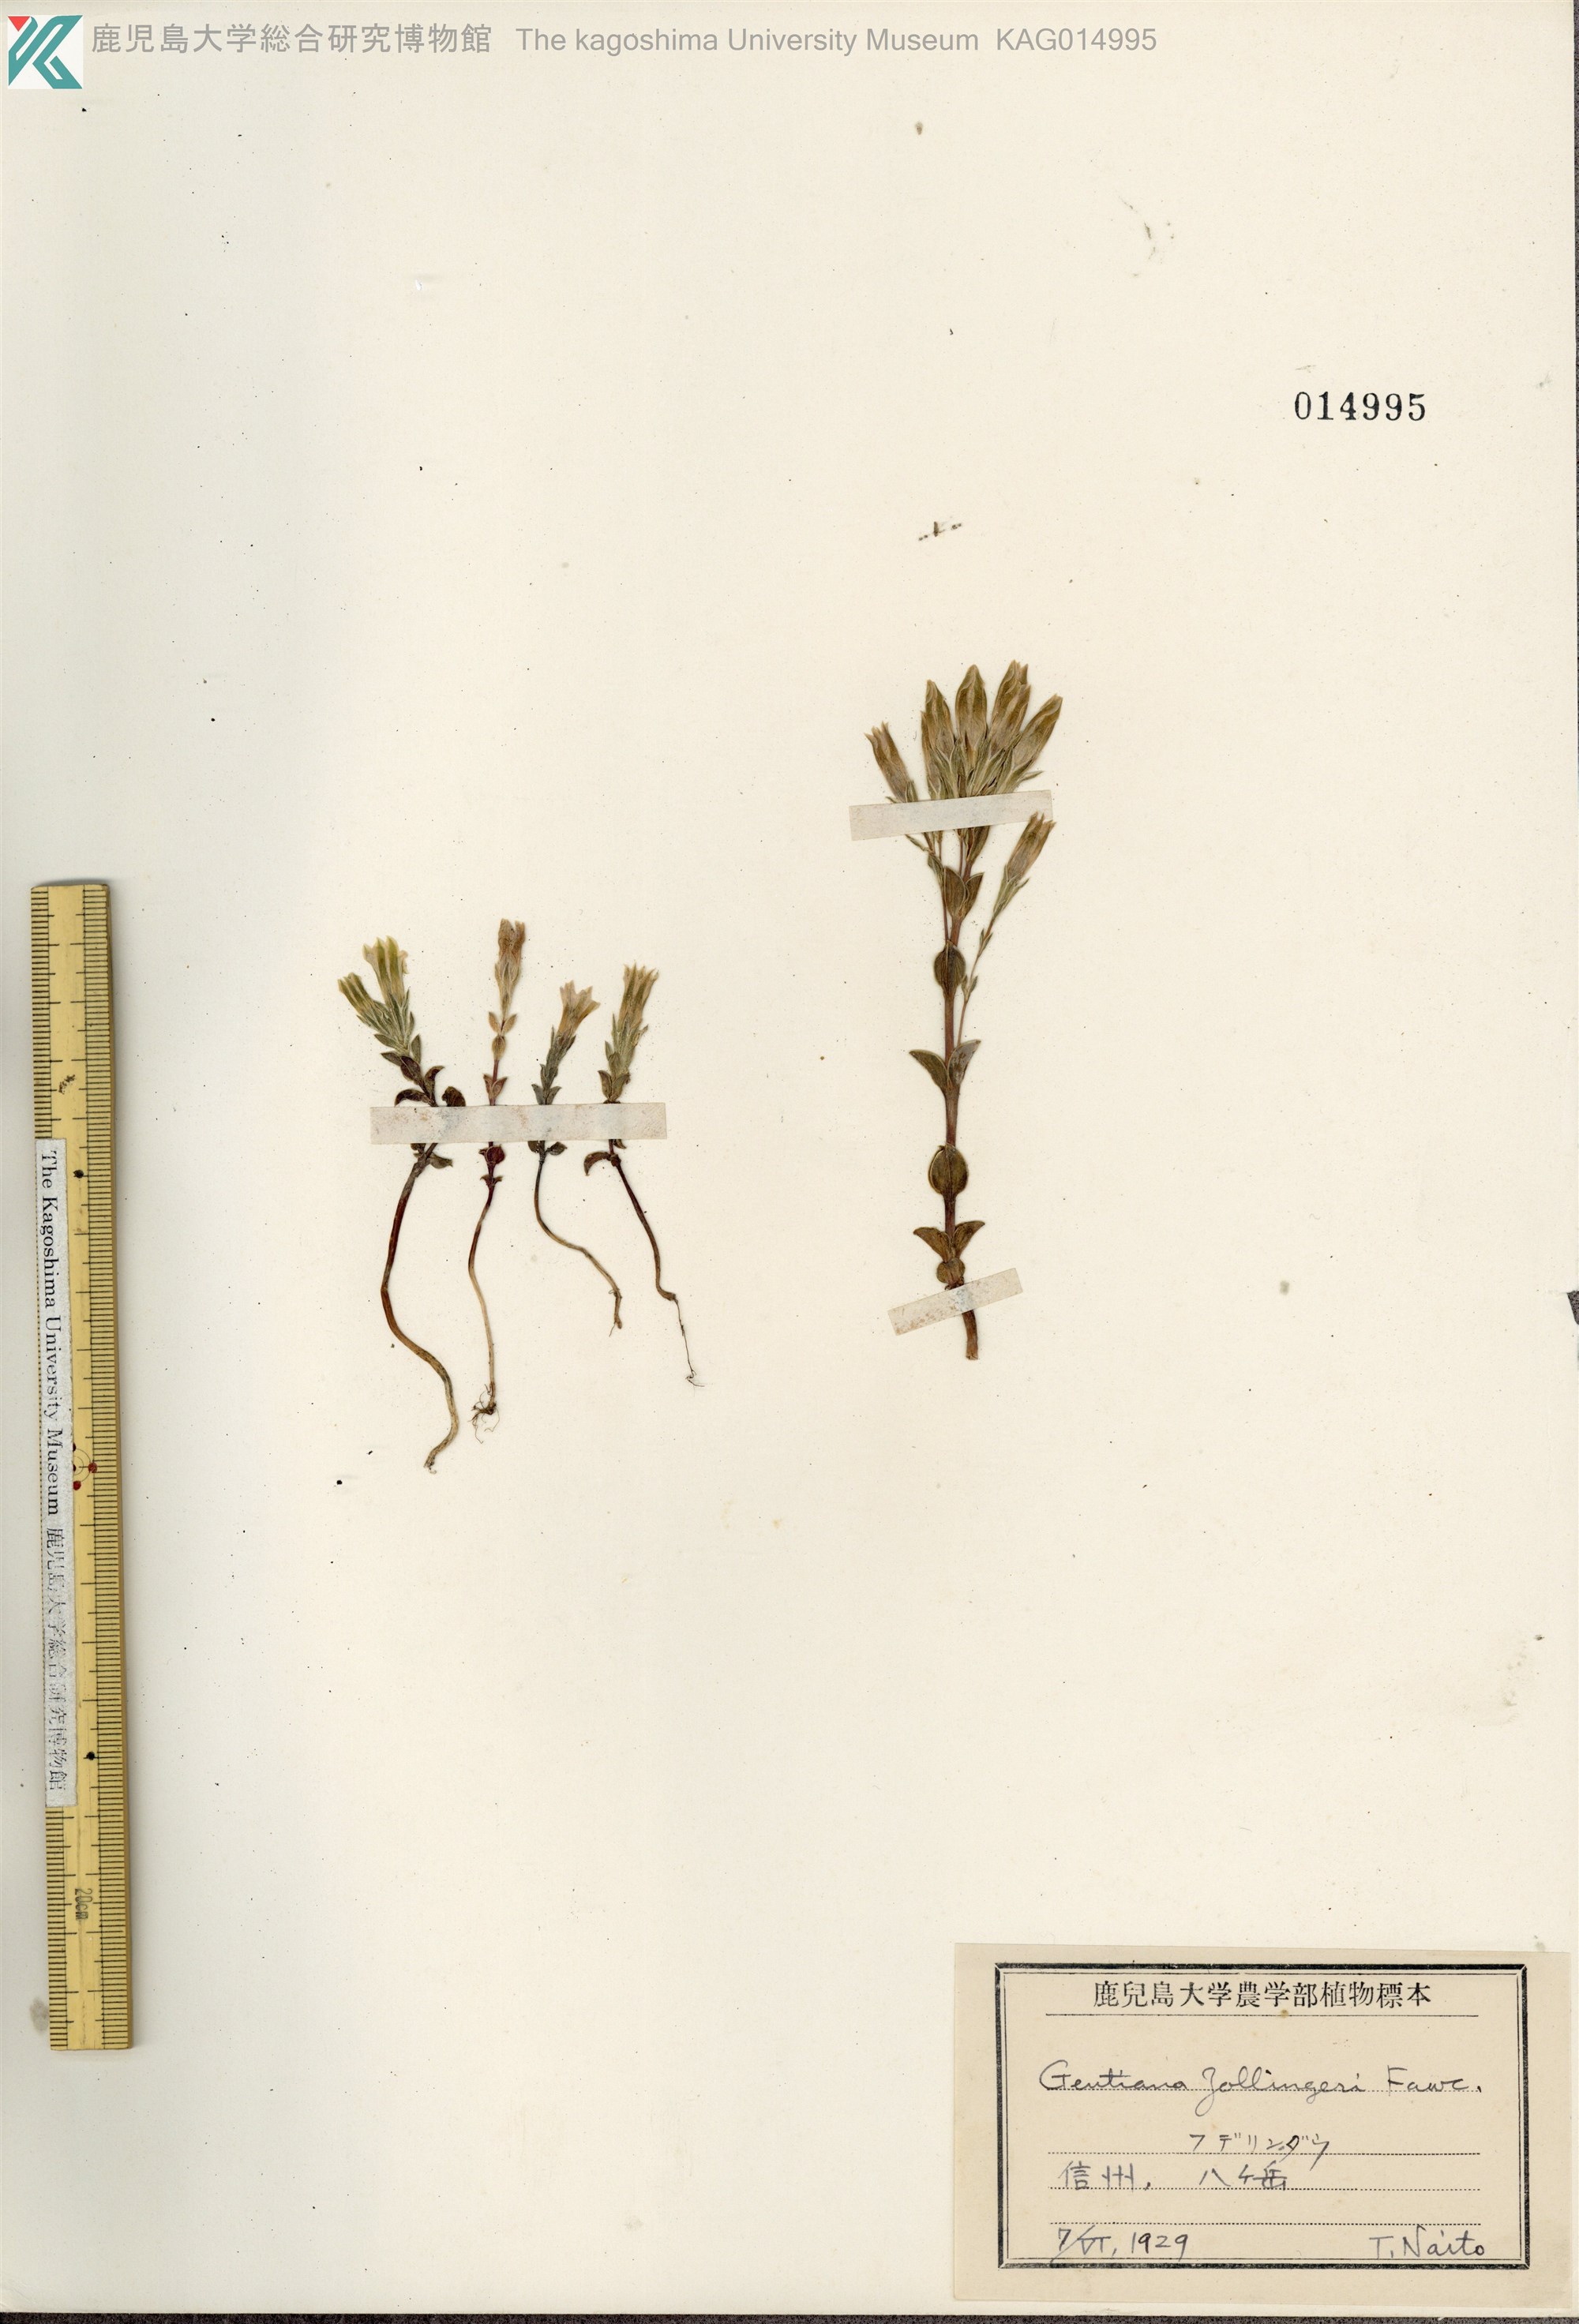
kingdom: Plantae
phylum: Tracheophyta
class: Magnoliopsida
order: Gentianales
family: Gentianaceae
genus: Gentiana
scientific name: Gentiana zollingeri
